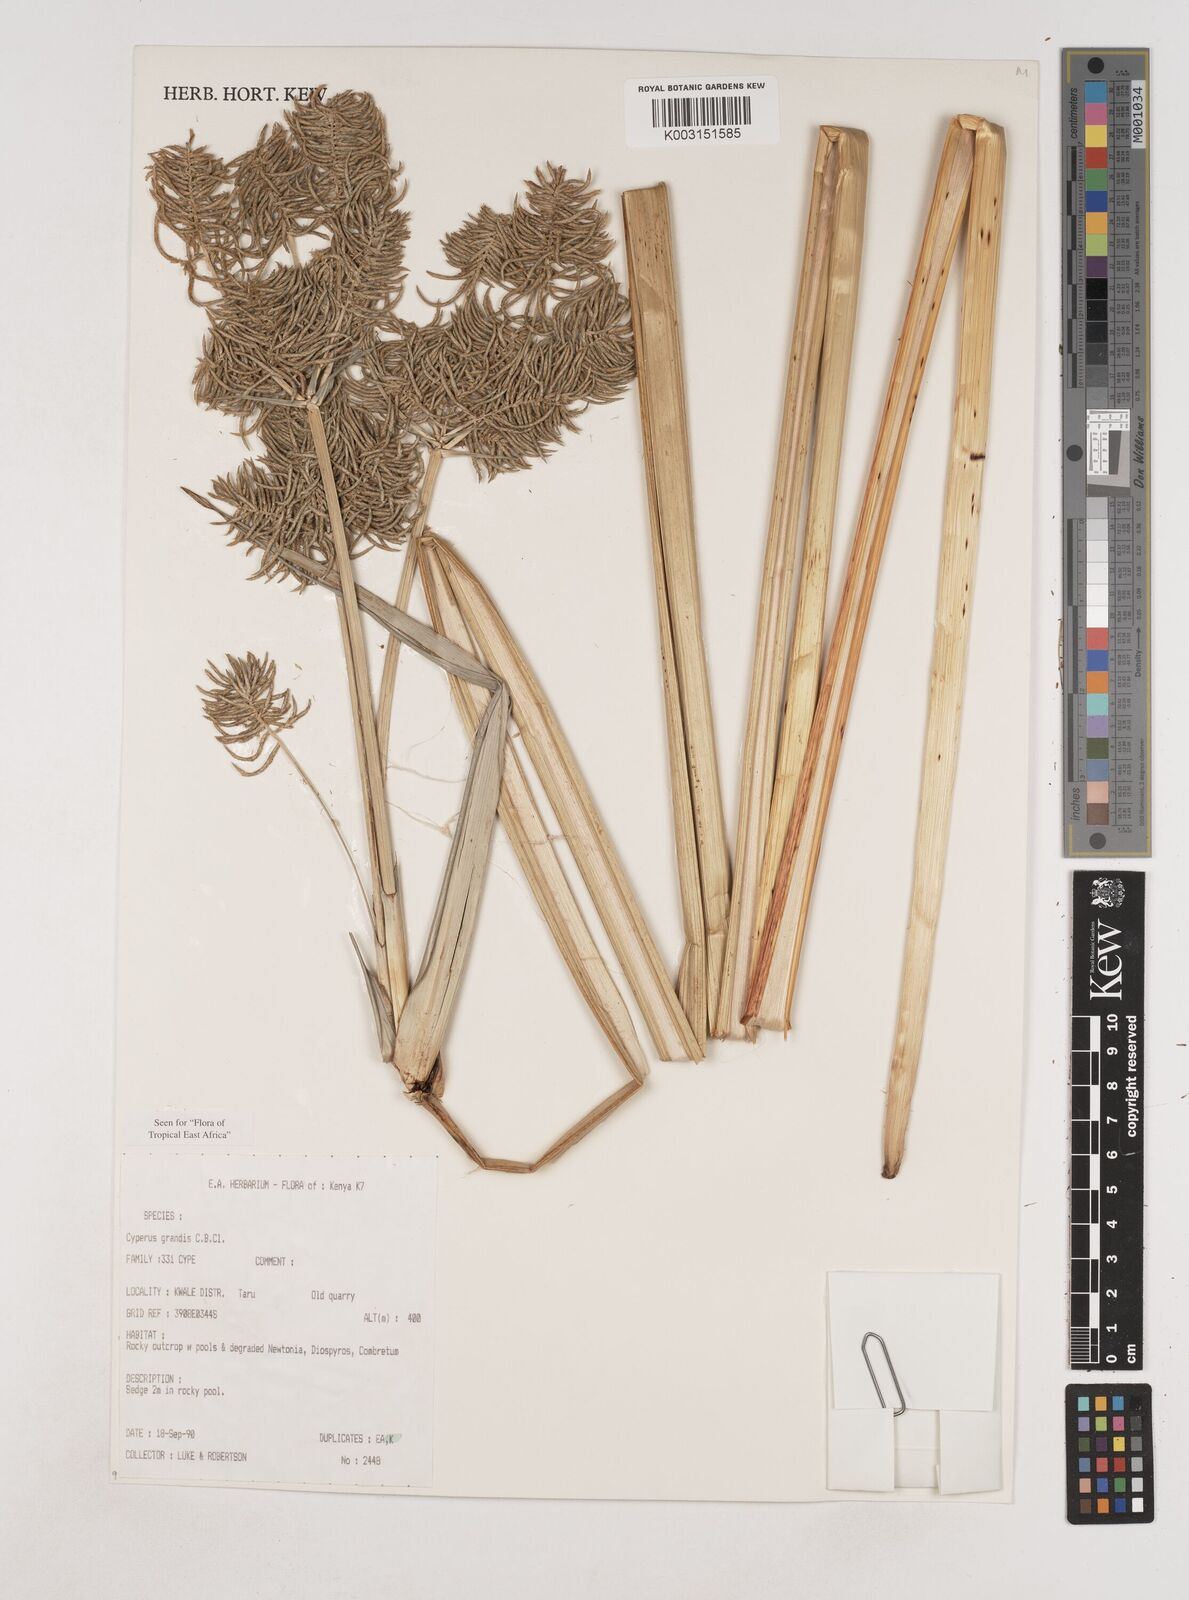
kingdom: Plantae
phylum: Tracheophyta
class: Liliopsida
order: Poales
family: Cyperaceae
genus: Cyperus
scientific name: Cyperus grandis
